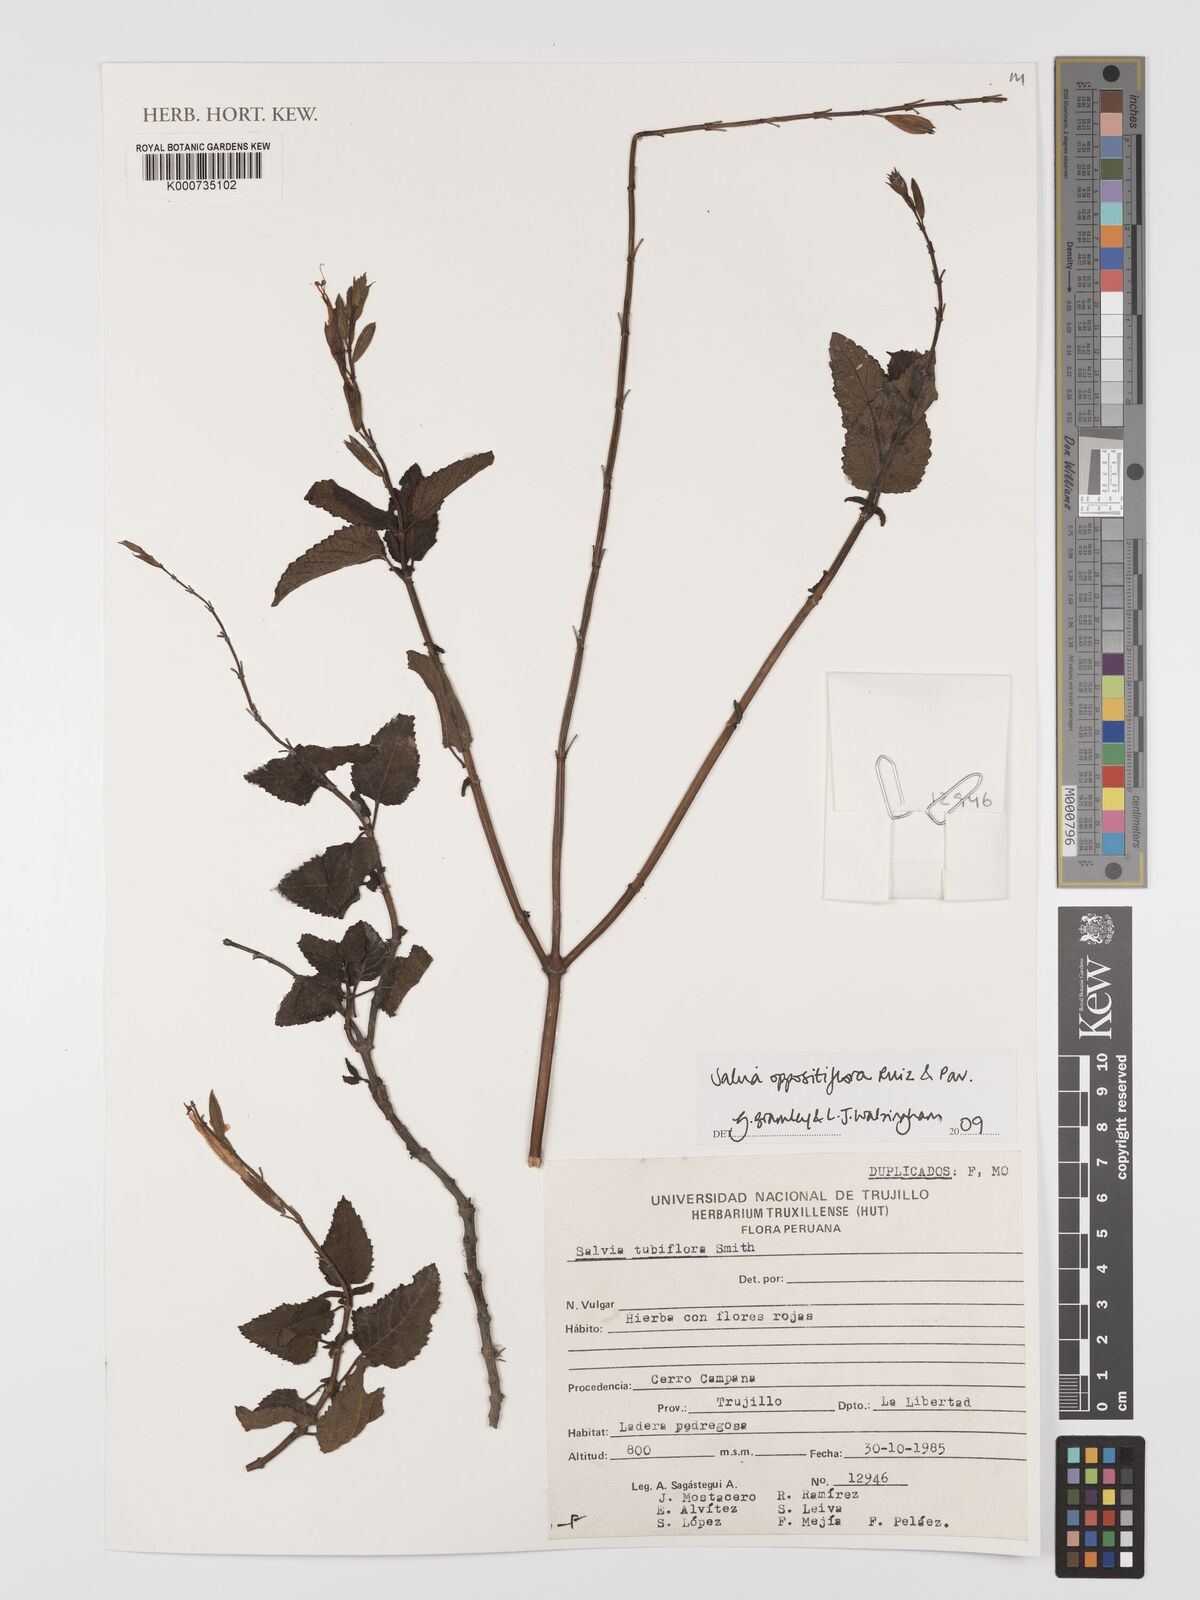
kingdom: Plantae
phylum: Tracheophyta
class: Magnoliopsida
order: Lamiales
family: Lamiaceae
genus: Salvia
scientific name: Salvia oppositiflora
